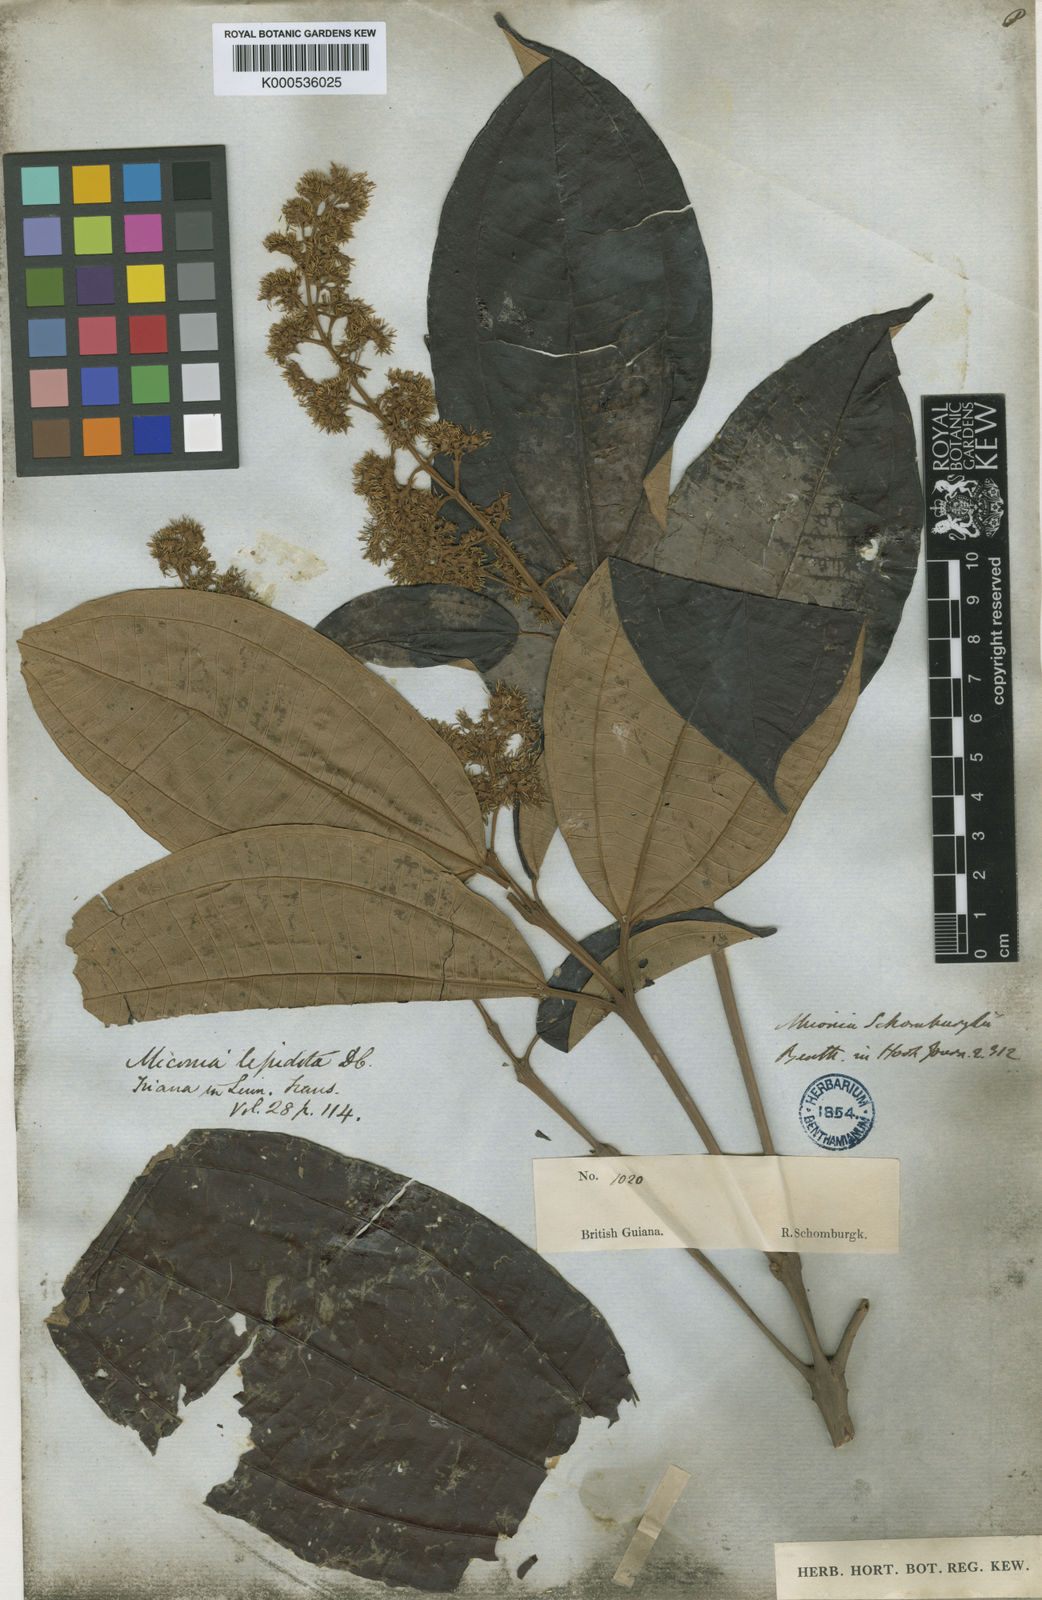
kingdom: Plantae
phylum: Tracheophyta
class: Magnoliopsida
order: Myrtales
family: Melastomataceae
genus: Miconia
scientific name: Miconia lepidota
